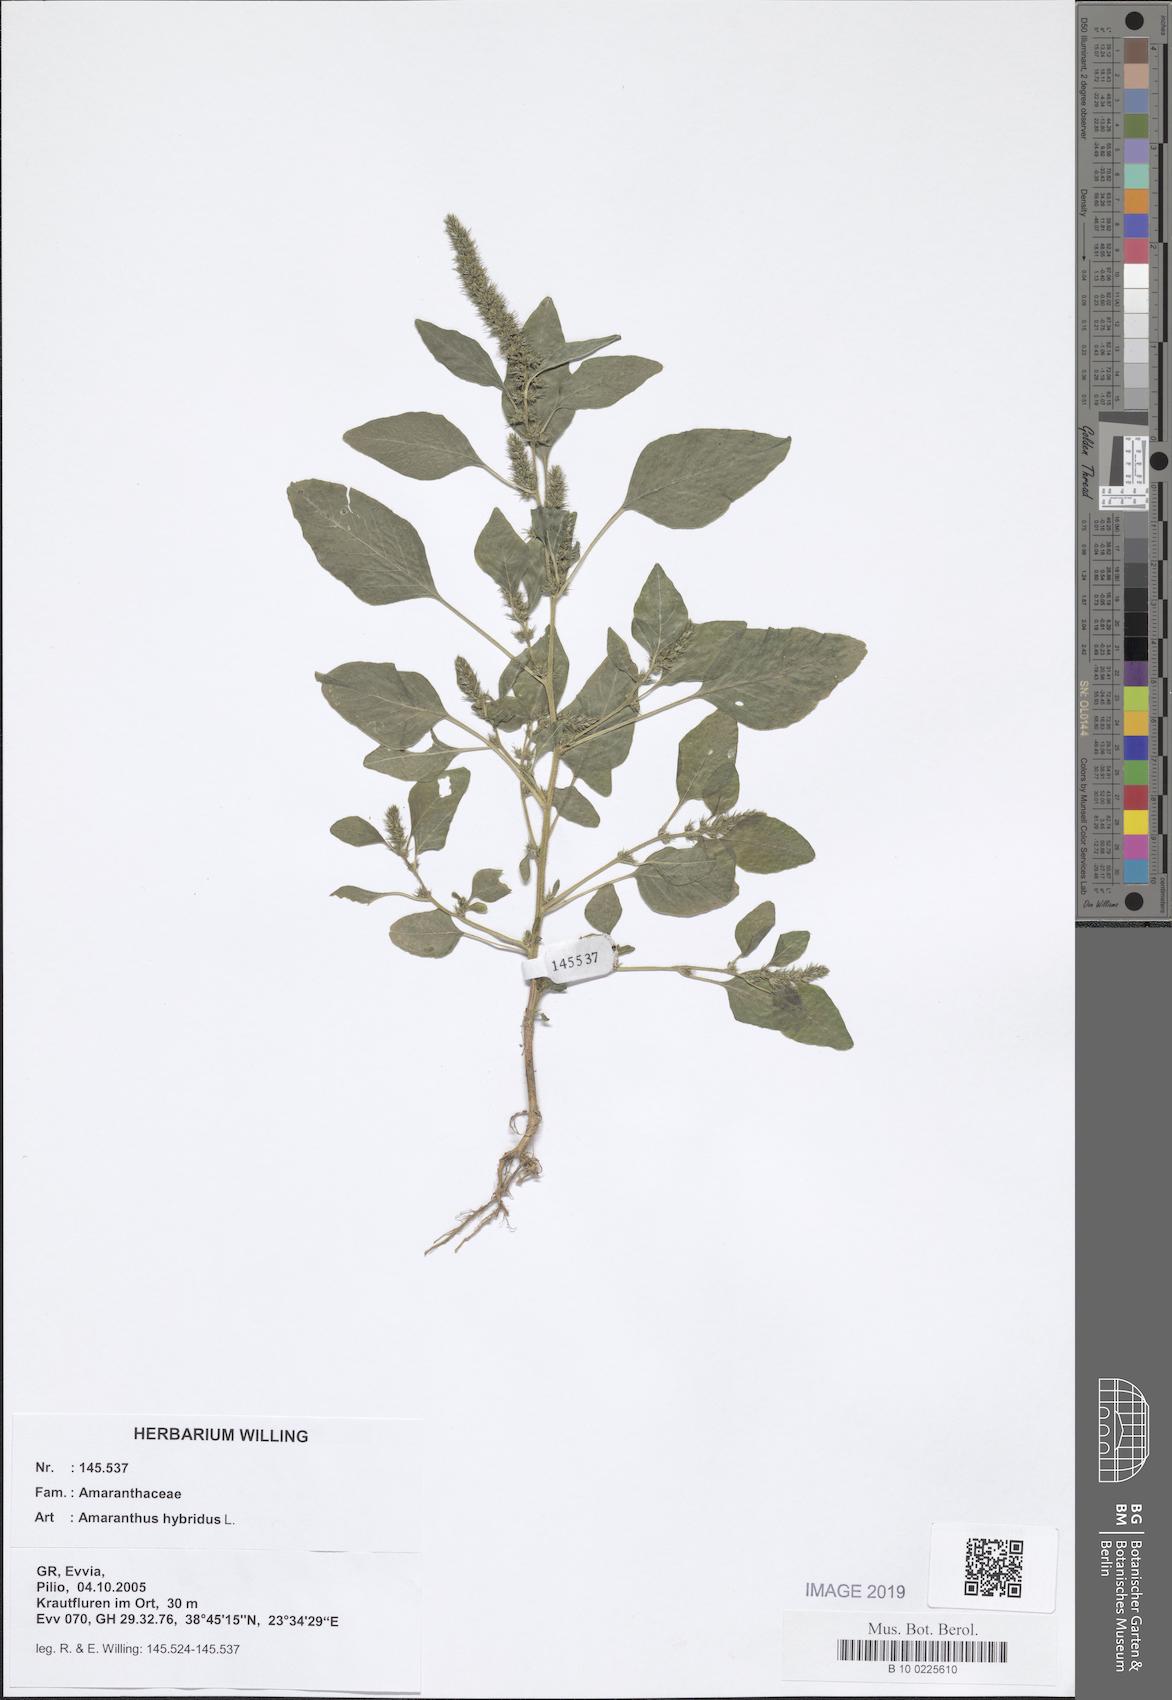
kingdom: Plantae
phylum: Tracheophyta
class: Magnoliopsida
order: Caryophyllales
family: Amaranthaceae
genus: Amaranthus
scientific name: Amaranthus hybridus
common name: Green amaranth
